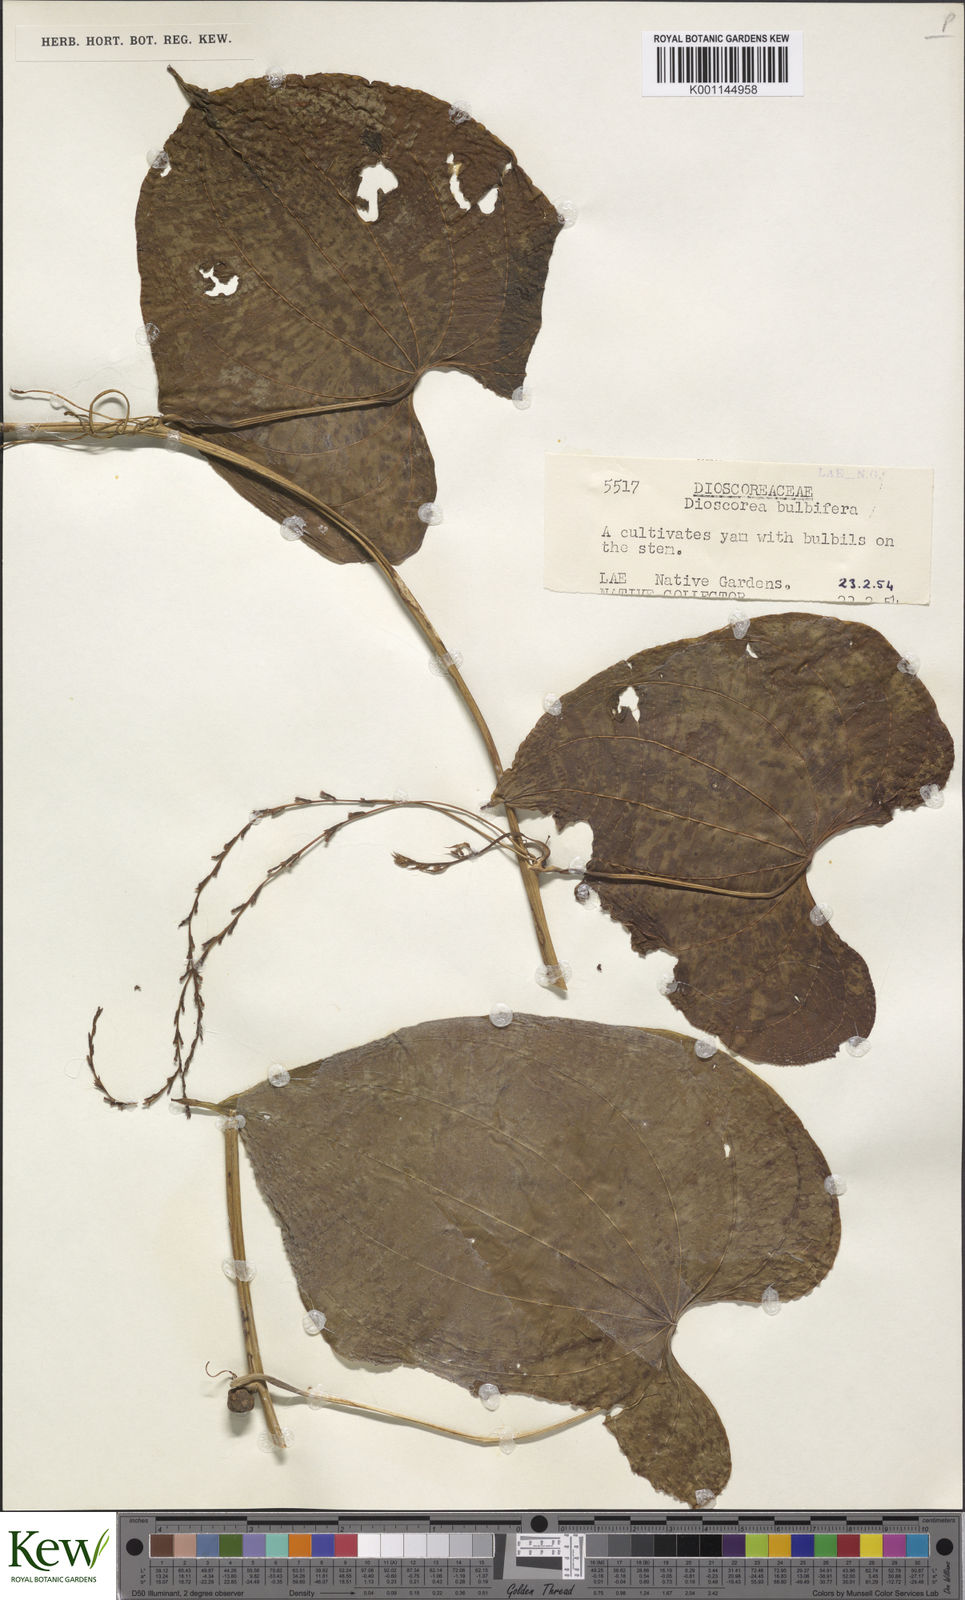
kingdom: Plantae
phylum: Tracheophyta
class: Liliopsida
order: Dioscoreales
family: Dioscoreaceae
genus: Dioscorea
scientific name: Dioscorea bulbifera
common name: Air yam
